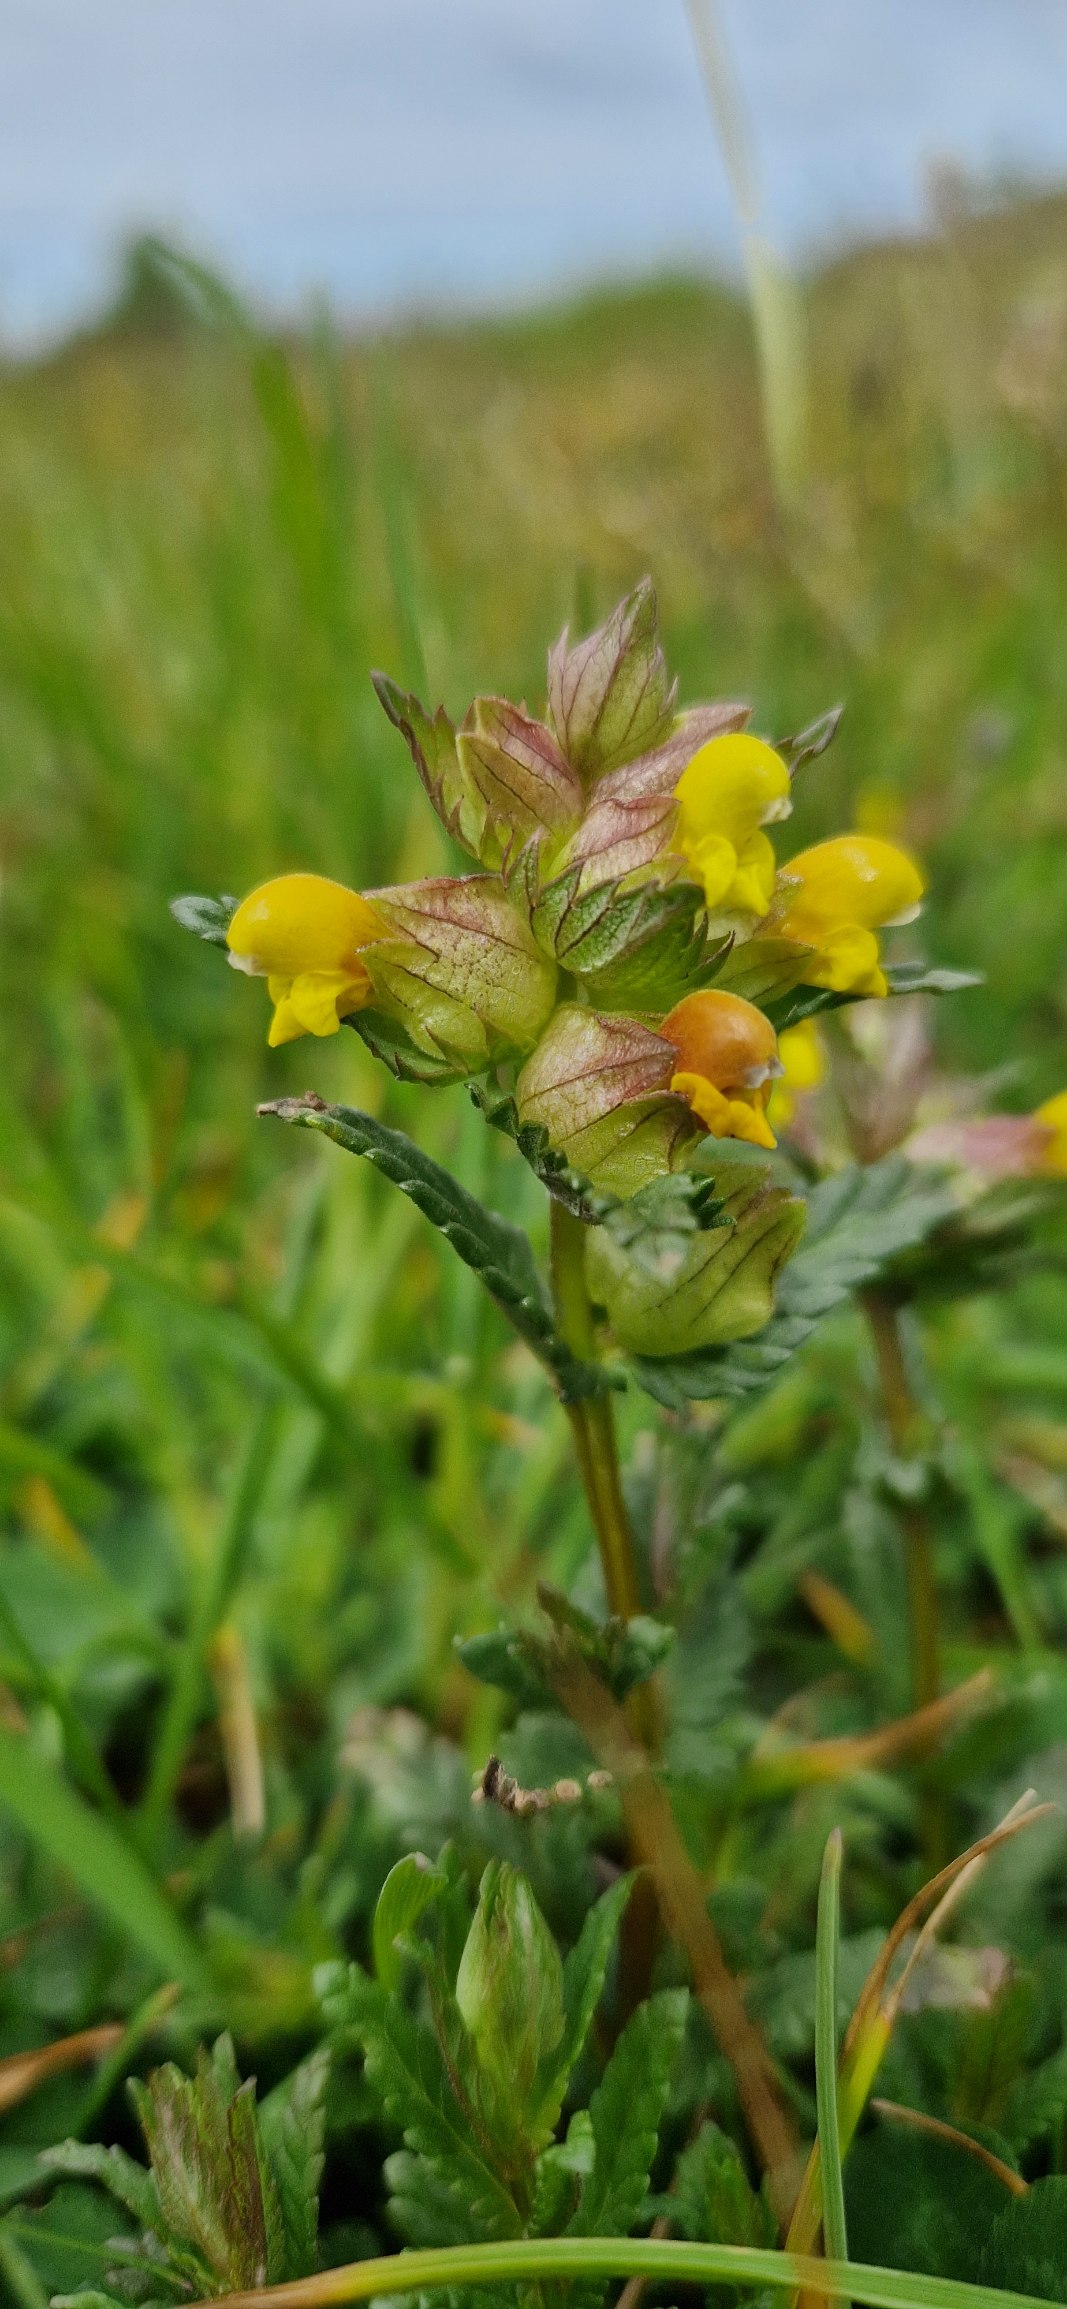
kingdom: Plantae
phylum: Tracheophyta
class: Magnoliopsida
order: Lamiales
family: Orobanchaceae
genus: Rhinanthus
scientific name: Rhinanthus minor
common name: Liden skjaller
